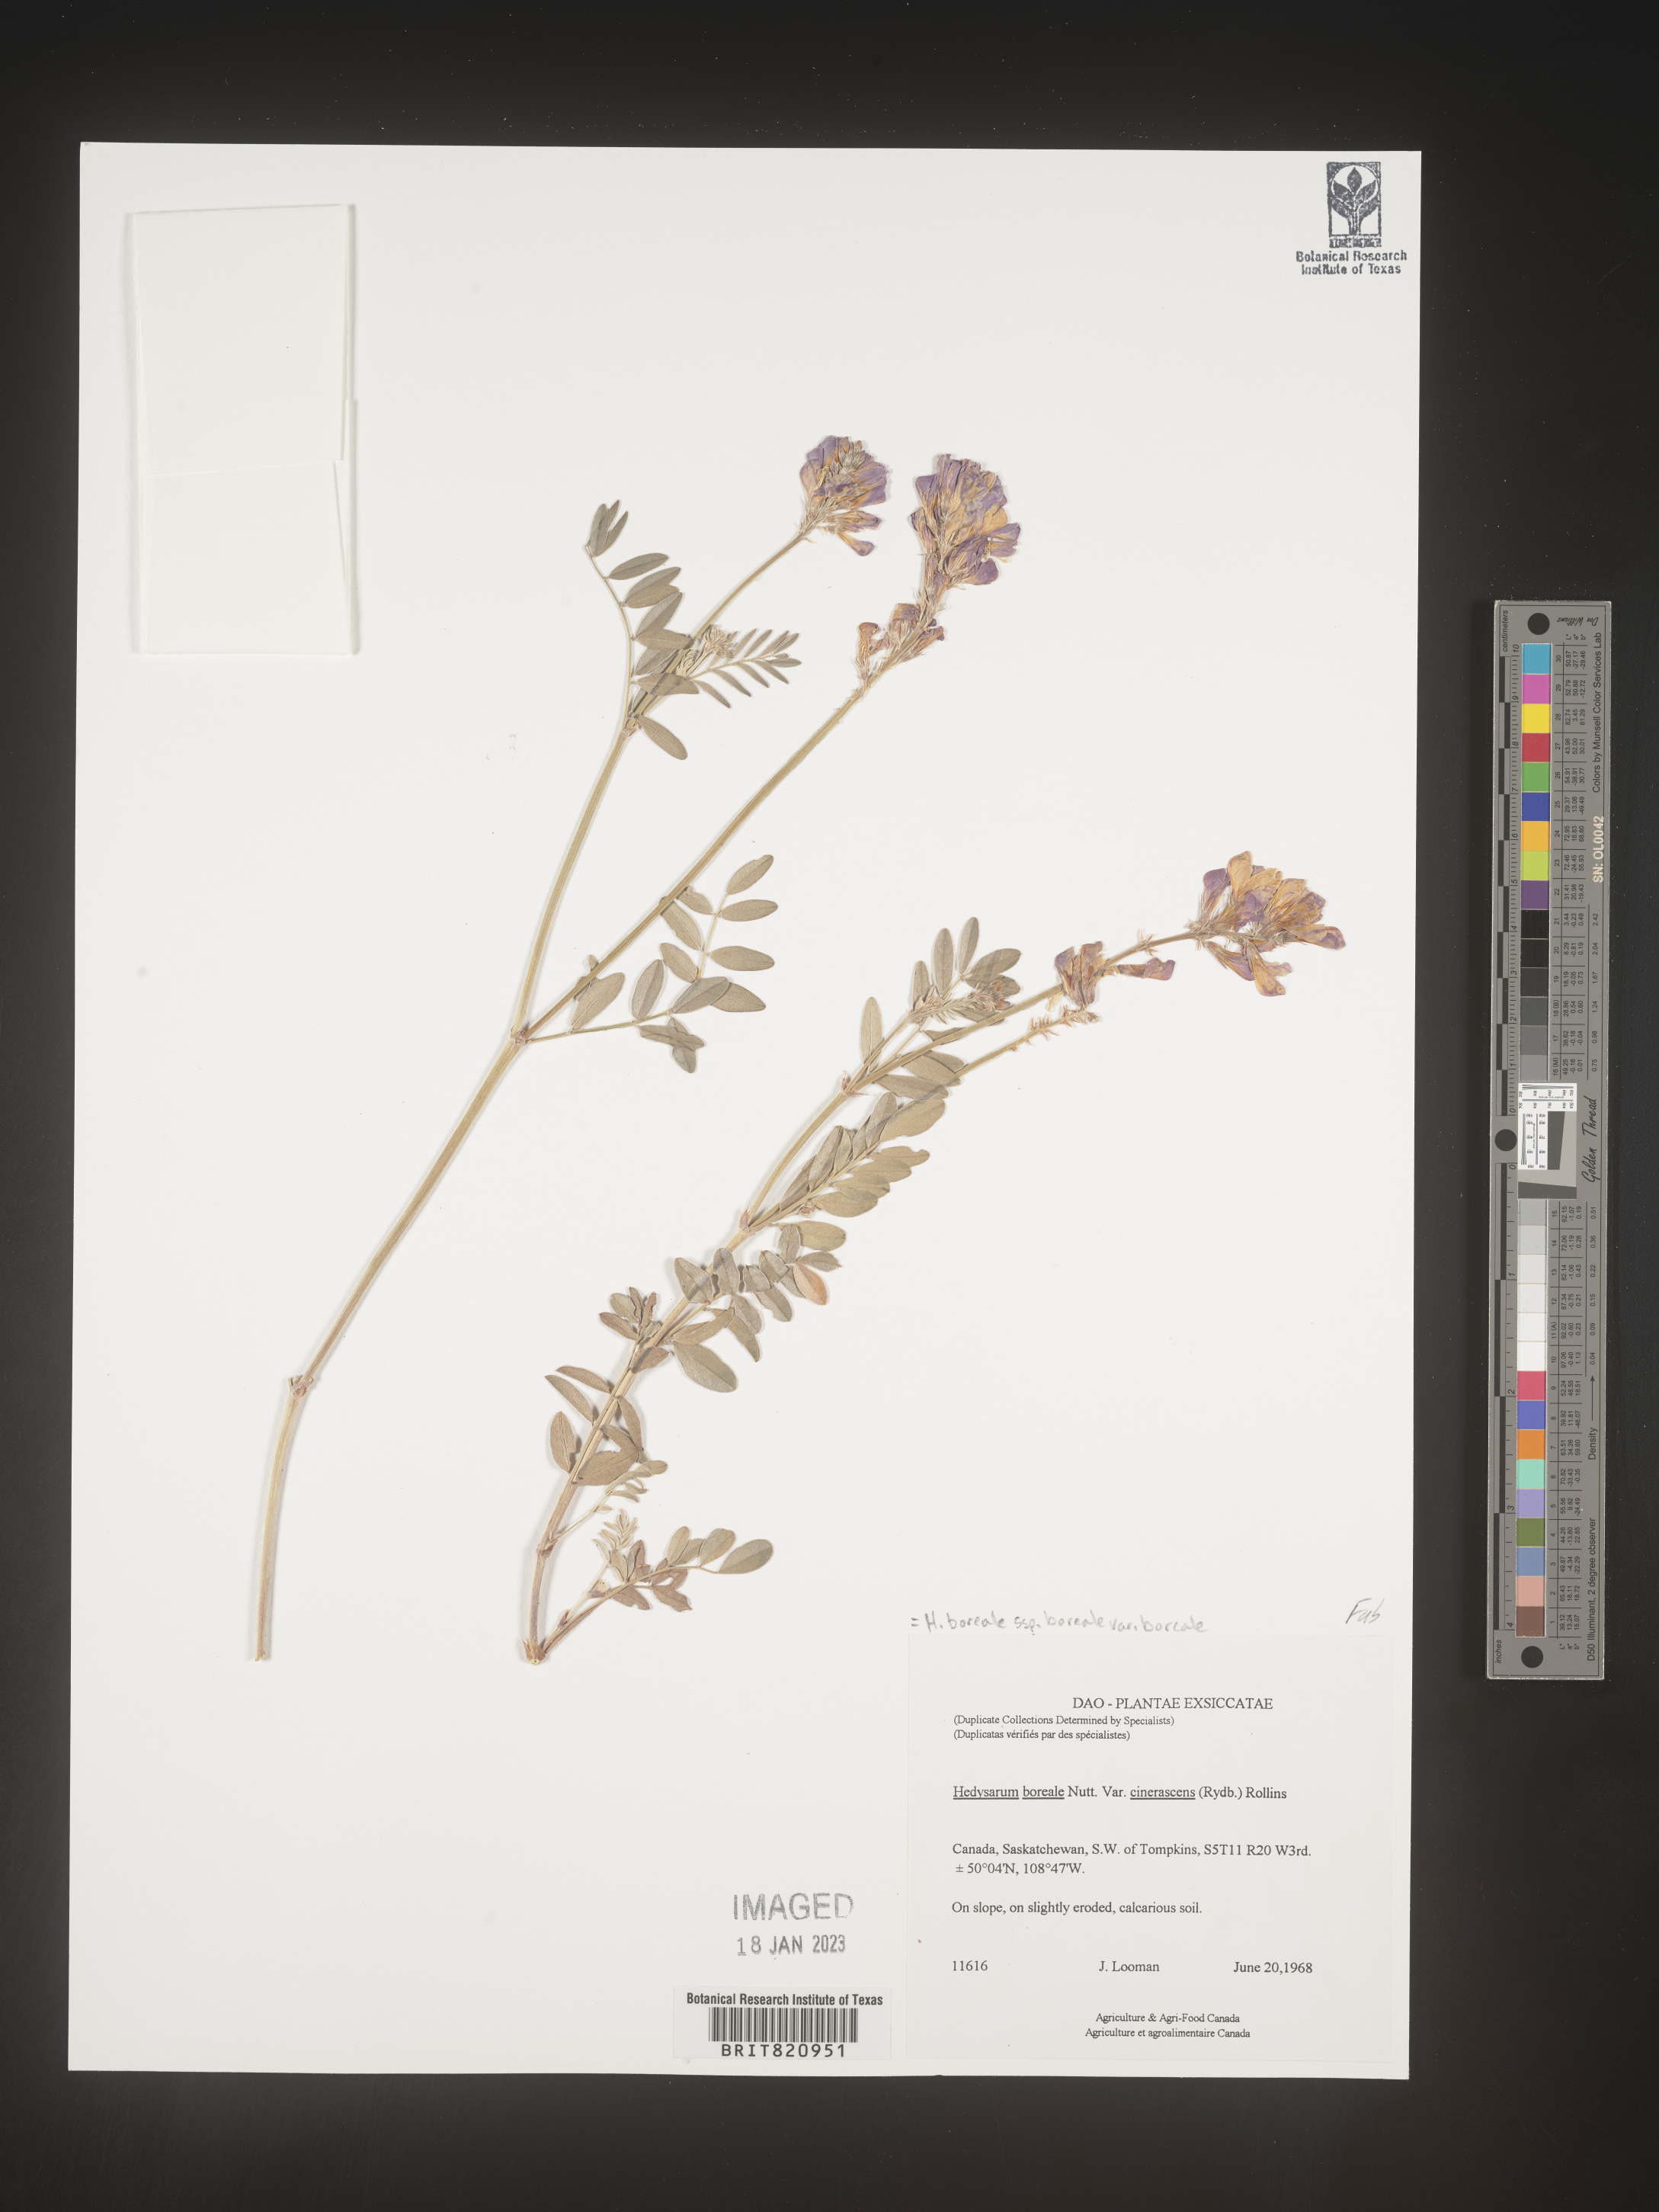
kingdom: Plantae
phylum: Tracheophyta
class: Magnoliopsida
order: Fabales
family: Fabaceae
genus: Hedysarum
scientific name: Hedysarum boreale
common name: Northern sweet-vetch
